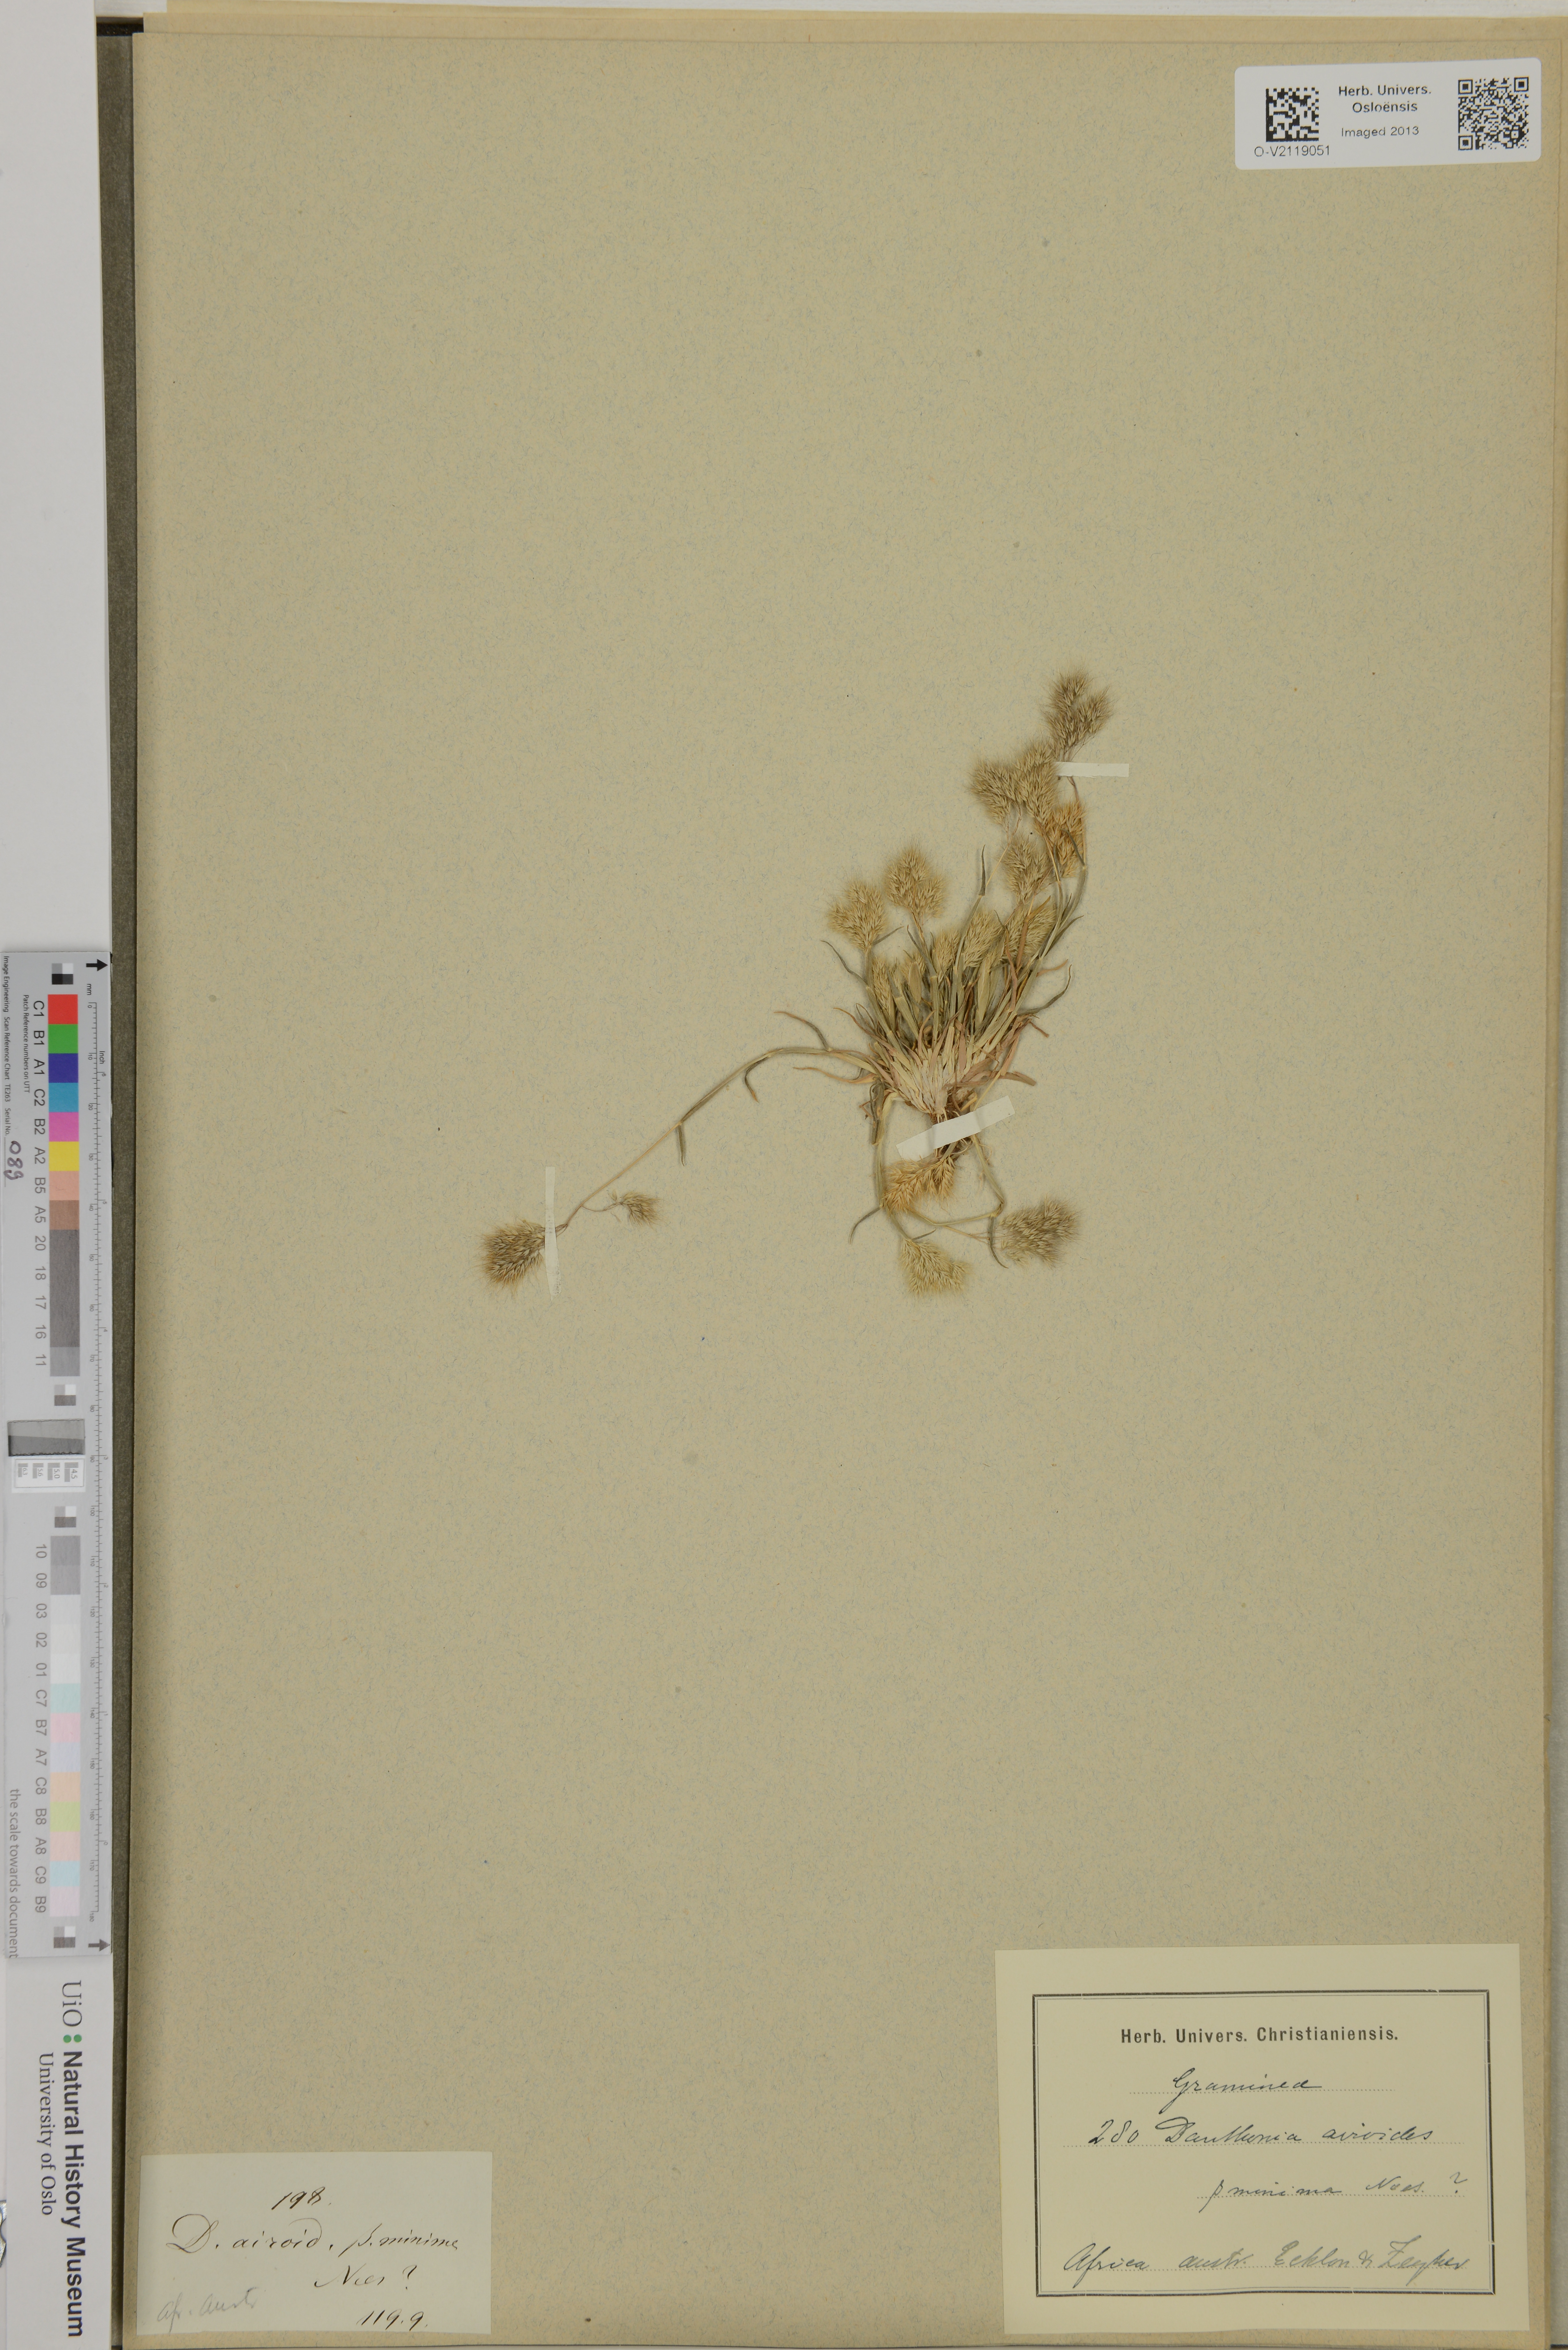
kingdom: Plantae
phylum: Tracheophyta
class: Liliopsida
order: Poales
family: Poaceae
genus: Pentameris
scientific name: Pentameris airoides
